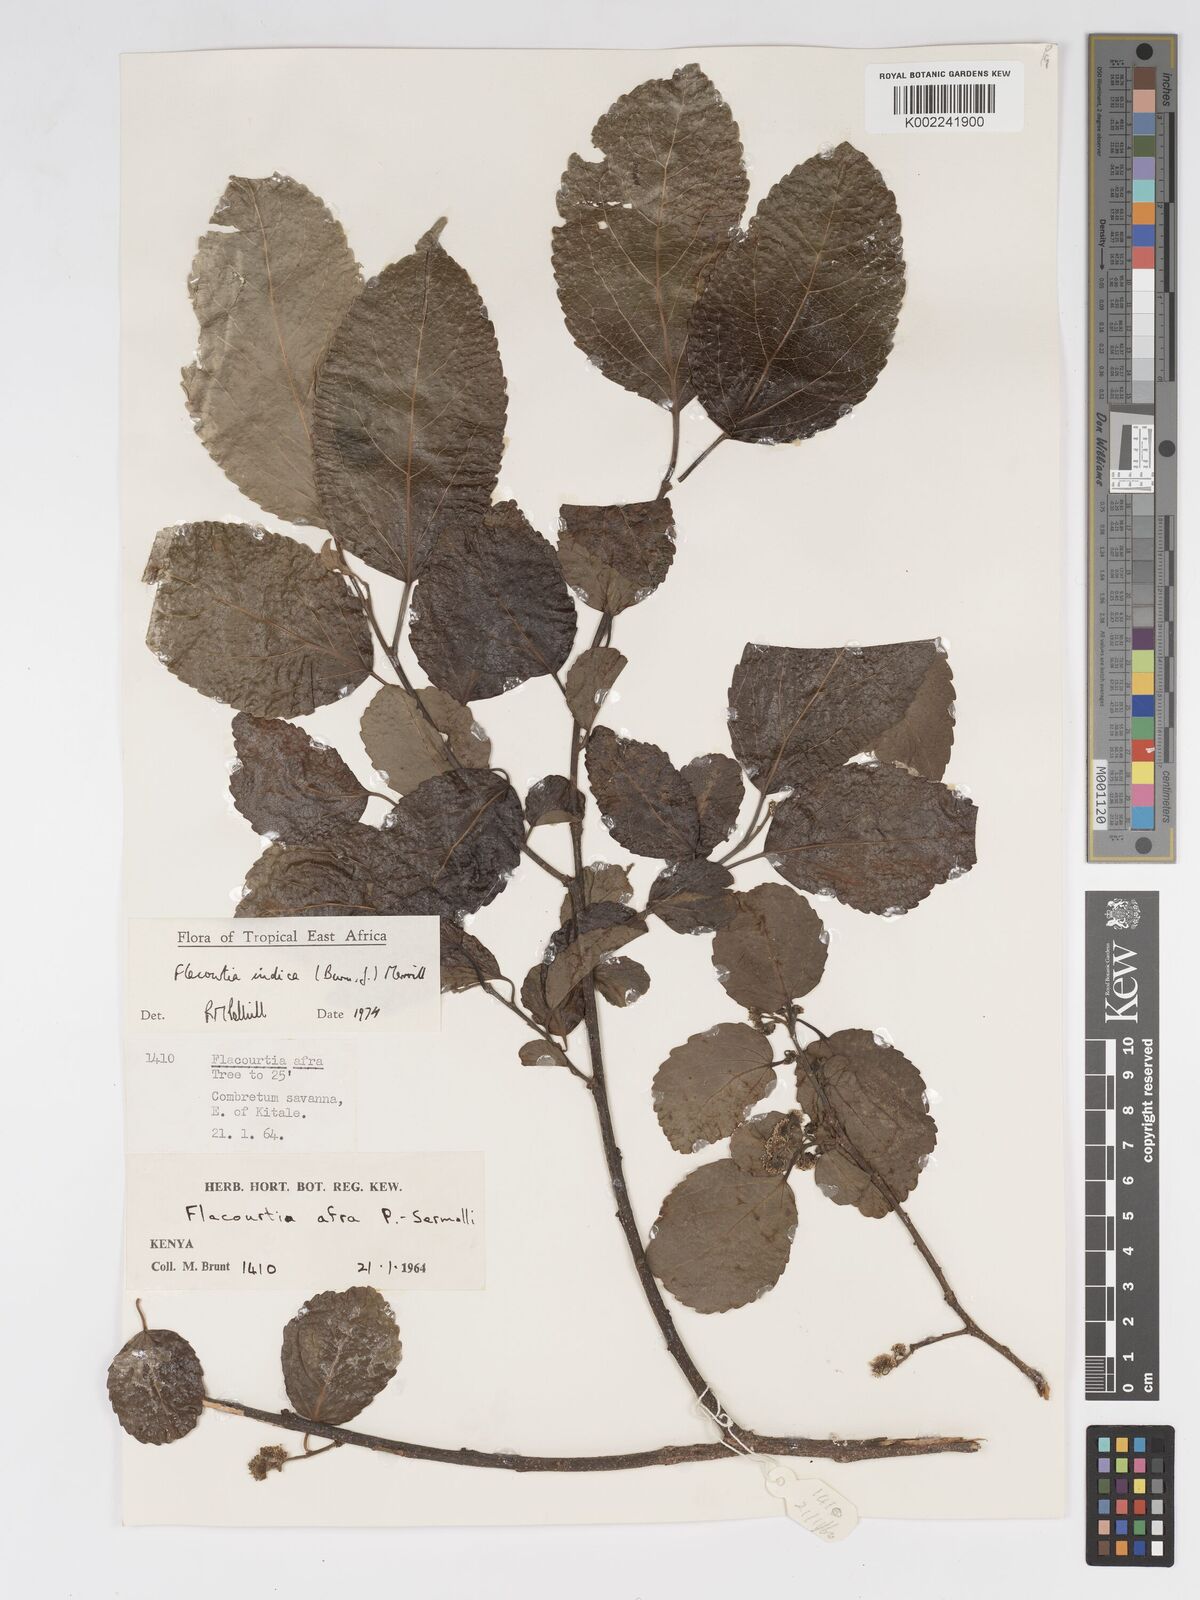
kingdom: Plantae
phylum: Tracheophyta
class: Magnoliopsida
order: Malpighiales
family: Salicaceae
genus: Flacourtia
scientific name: Flacourtia indica
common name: Governor's plum
